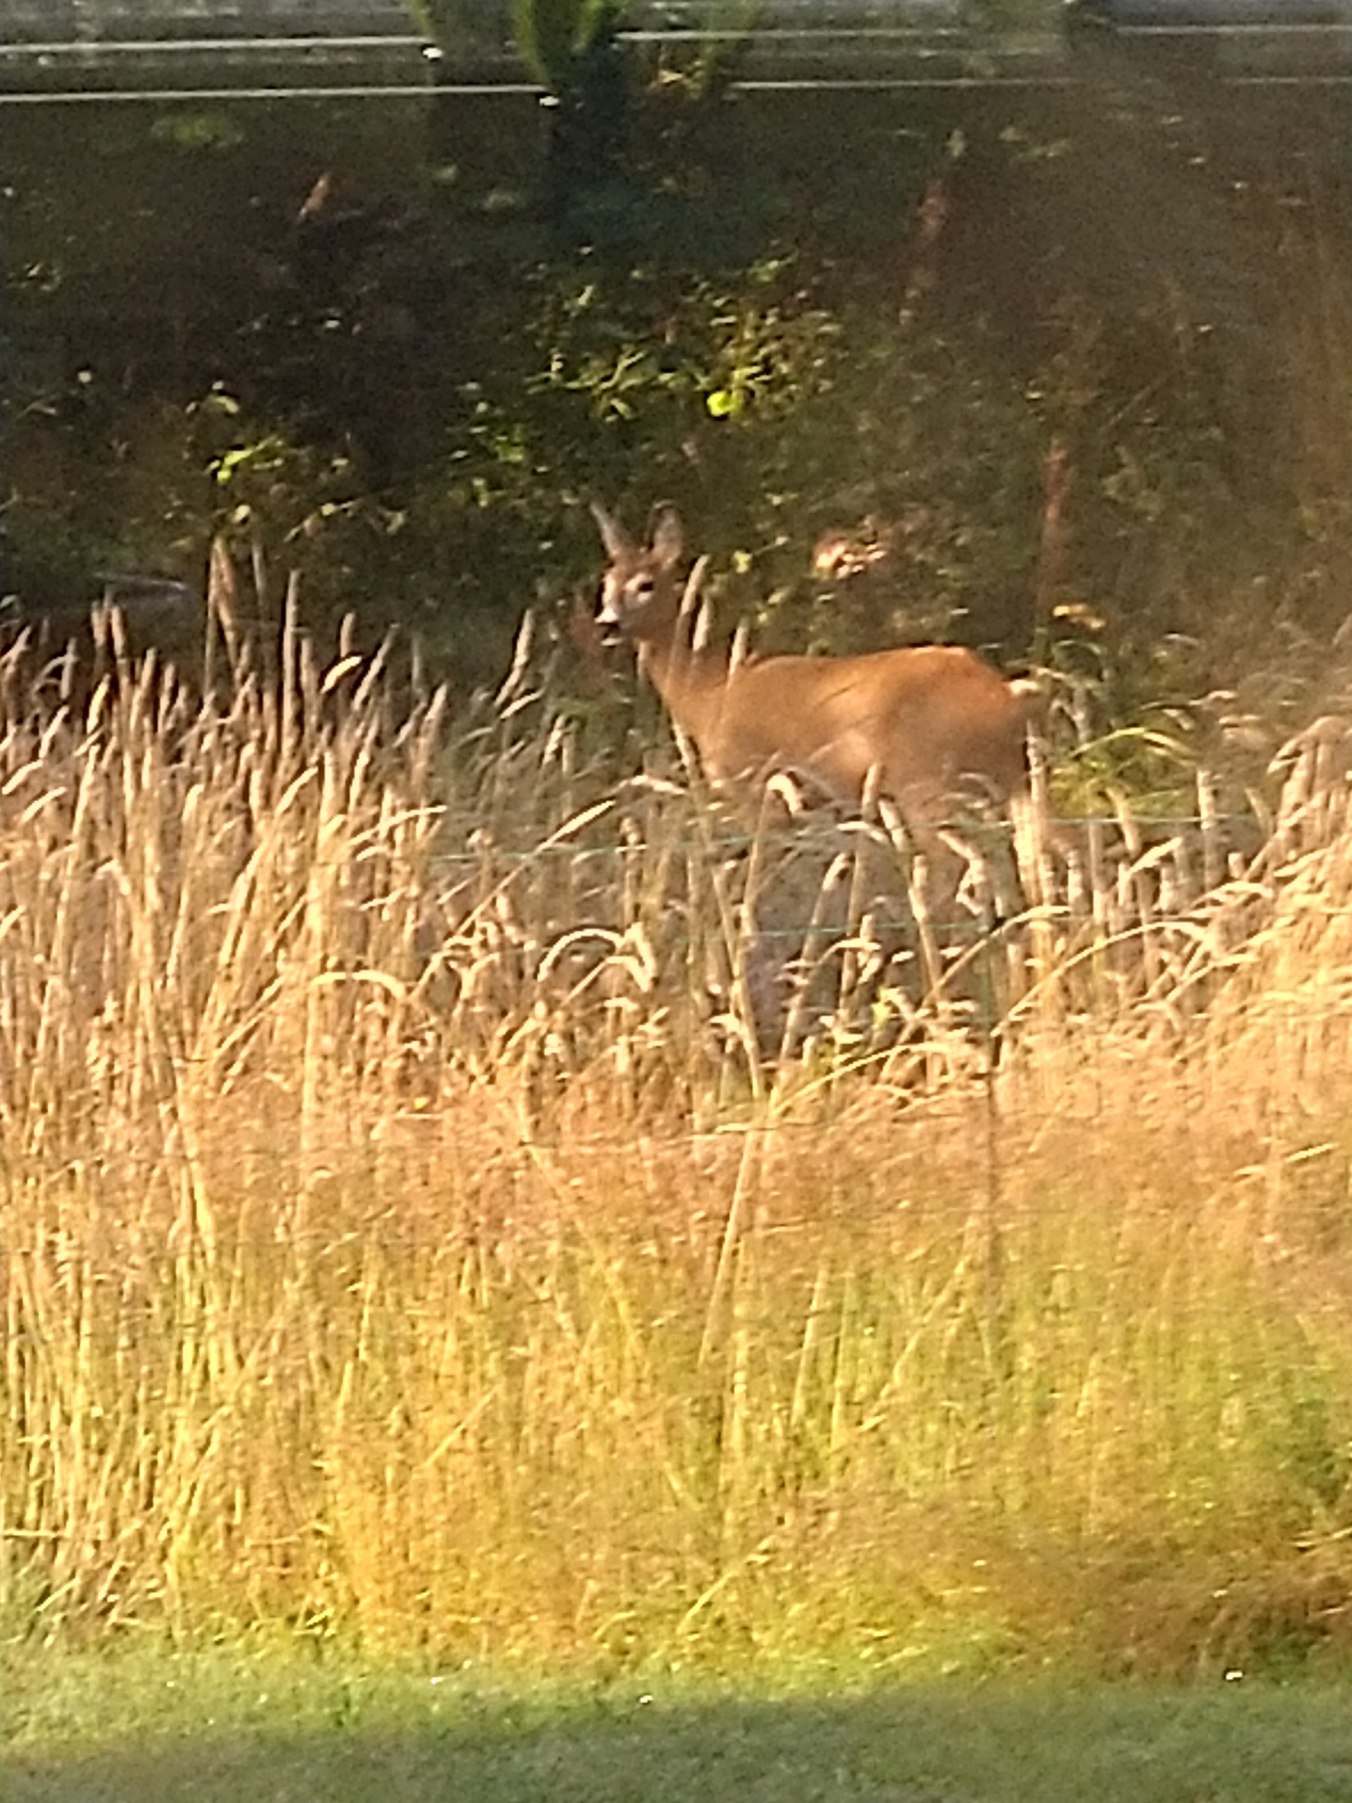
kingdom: Animalia
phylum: Chordata
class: Mammalia
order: Artiodactyla
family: Cervidae
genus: Capreolus
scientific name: Capreolus capreolus
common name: Rådyr
